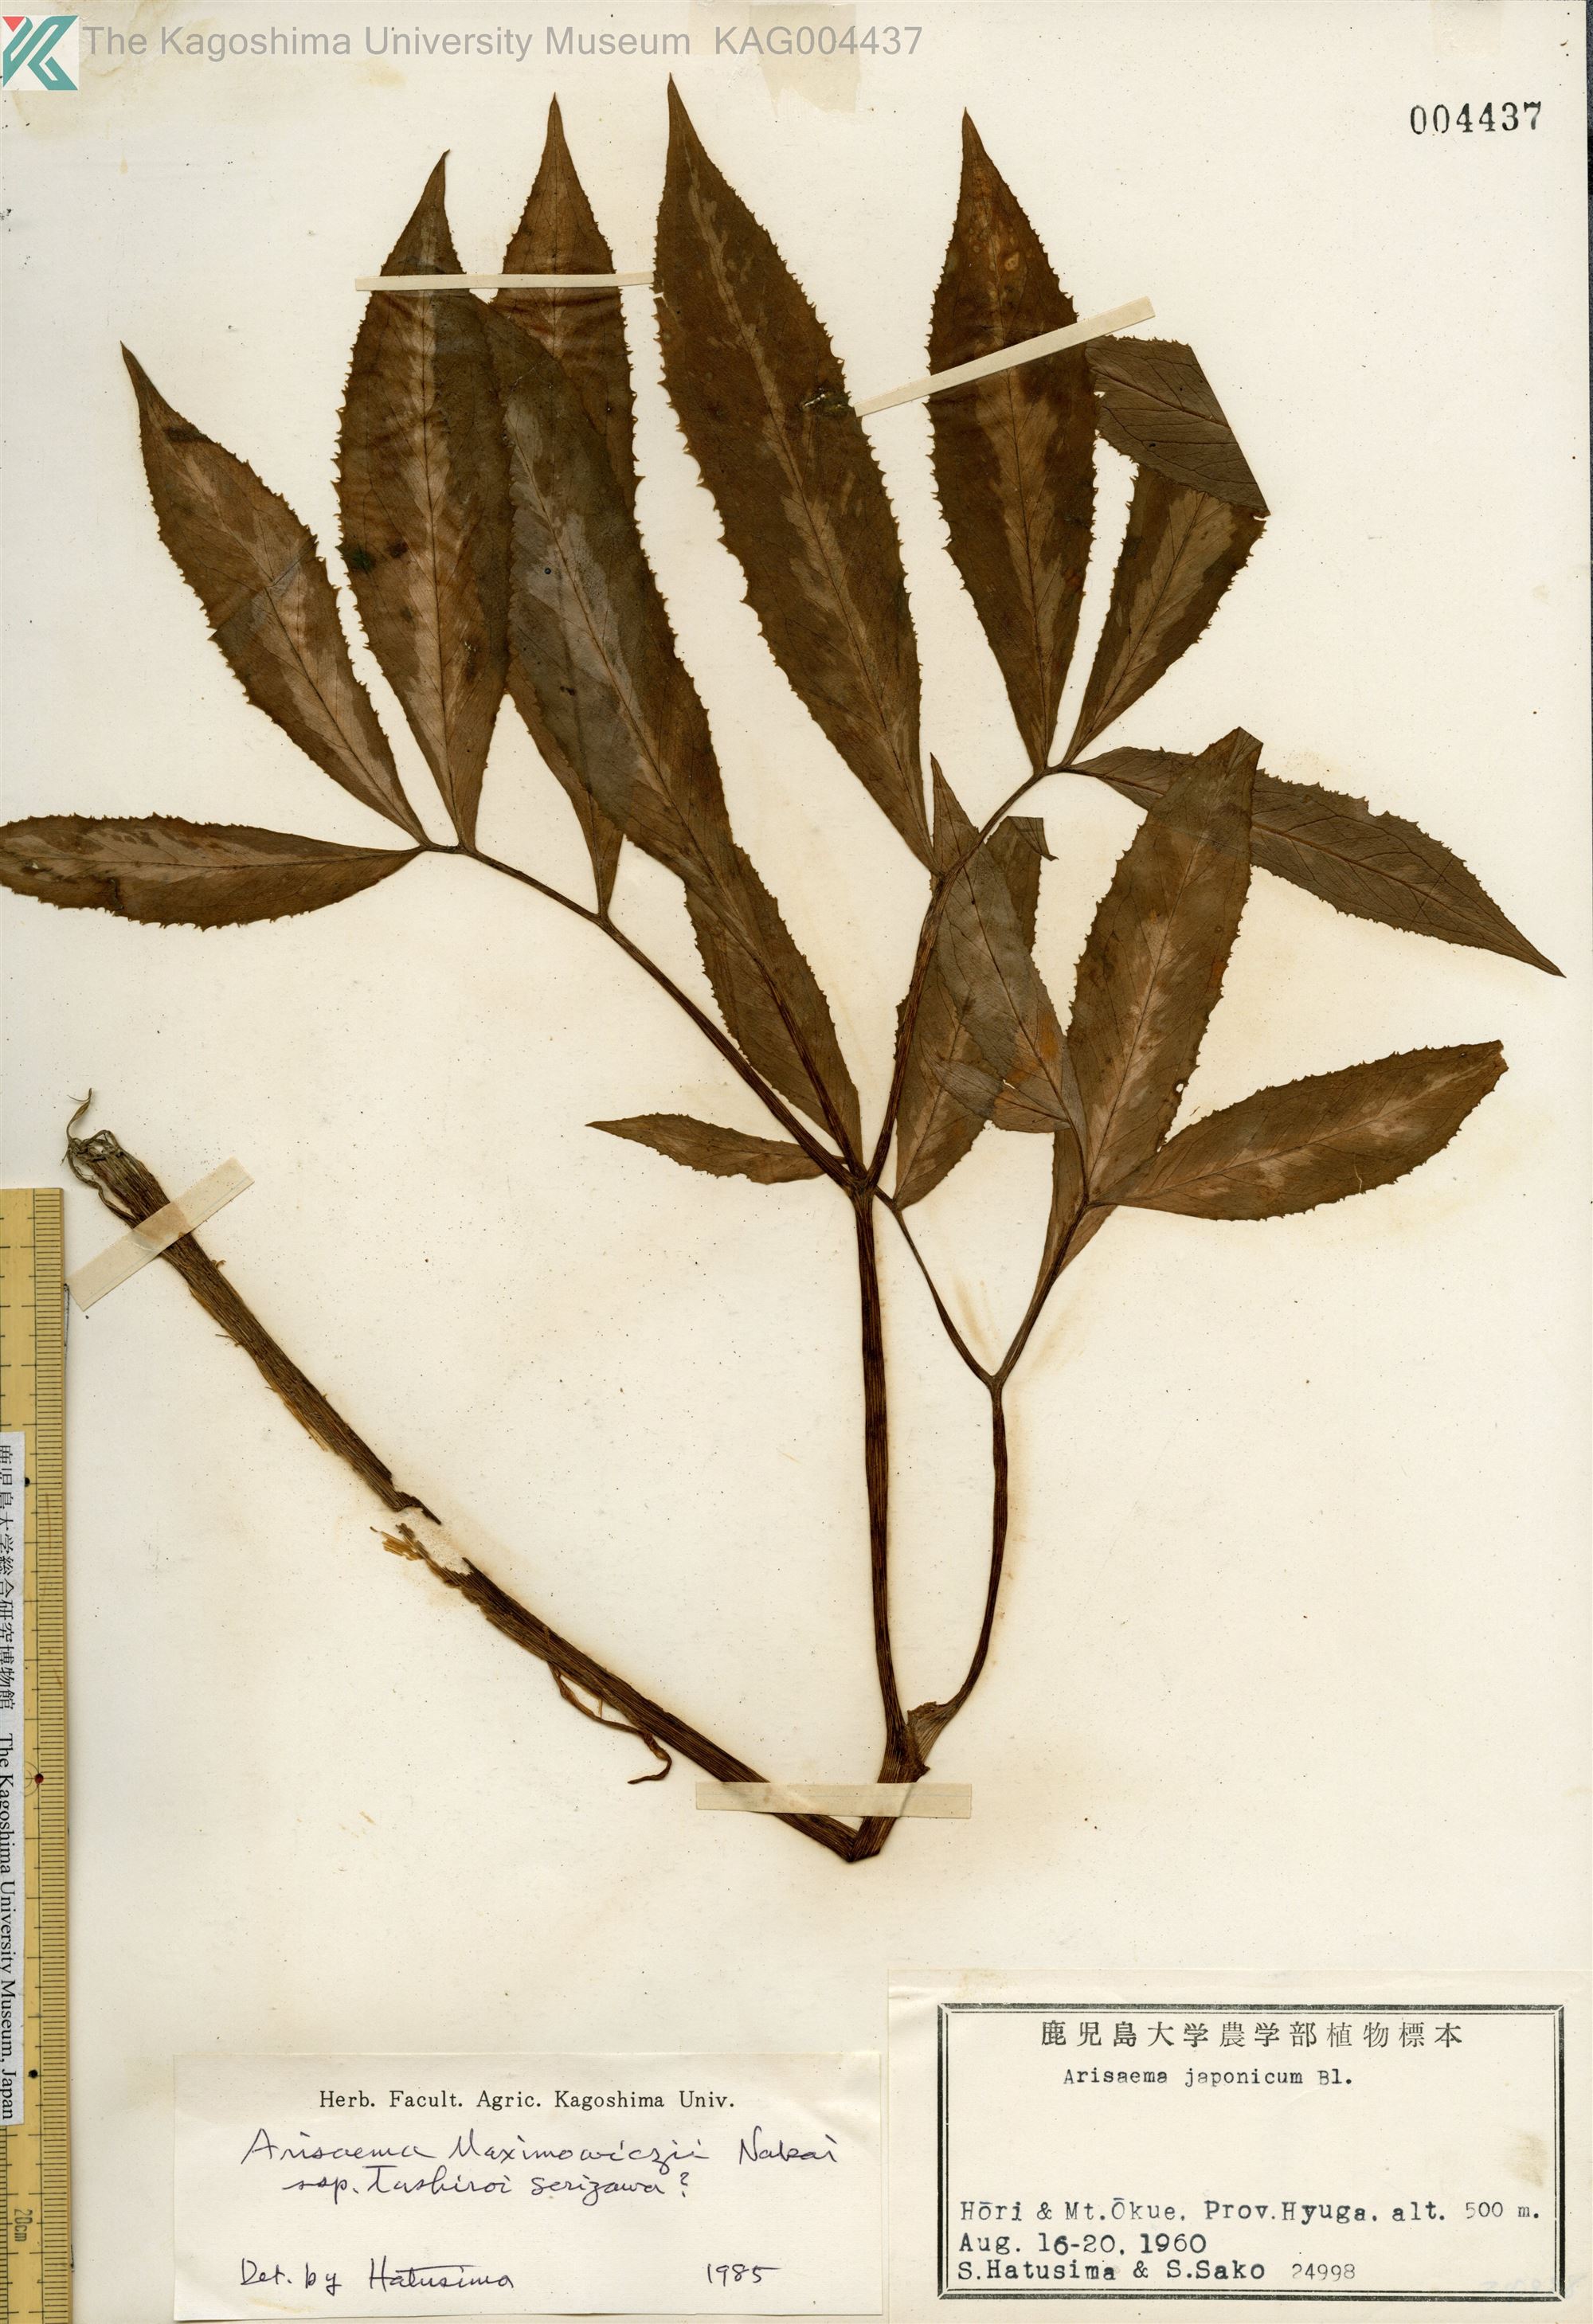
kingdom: Plantae
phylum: Tracheophyta
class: Liliopsida
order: Alismatales
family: Araceae
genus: Arisaema
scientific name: Arisaema tashiroi
